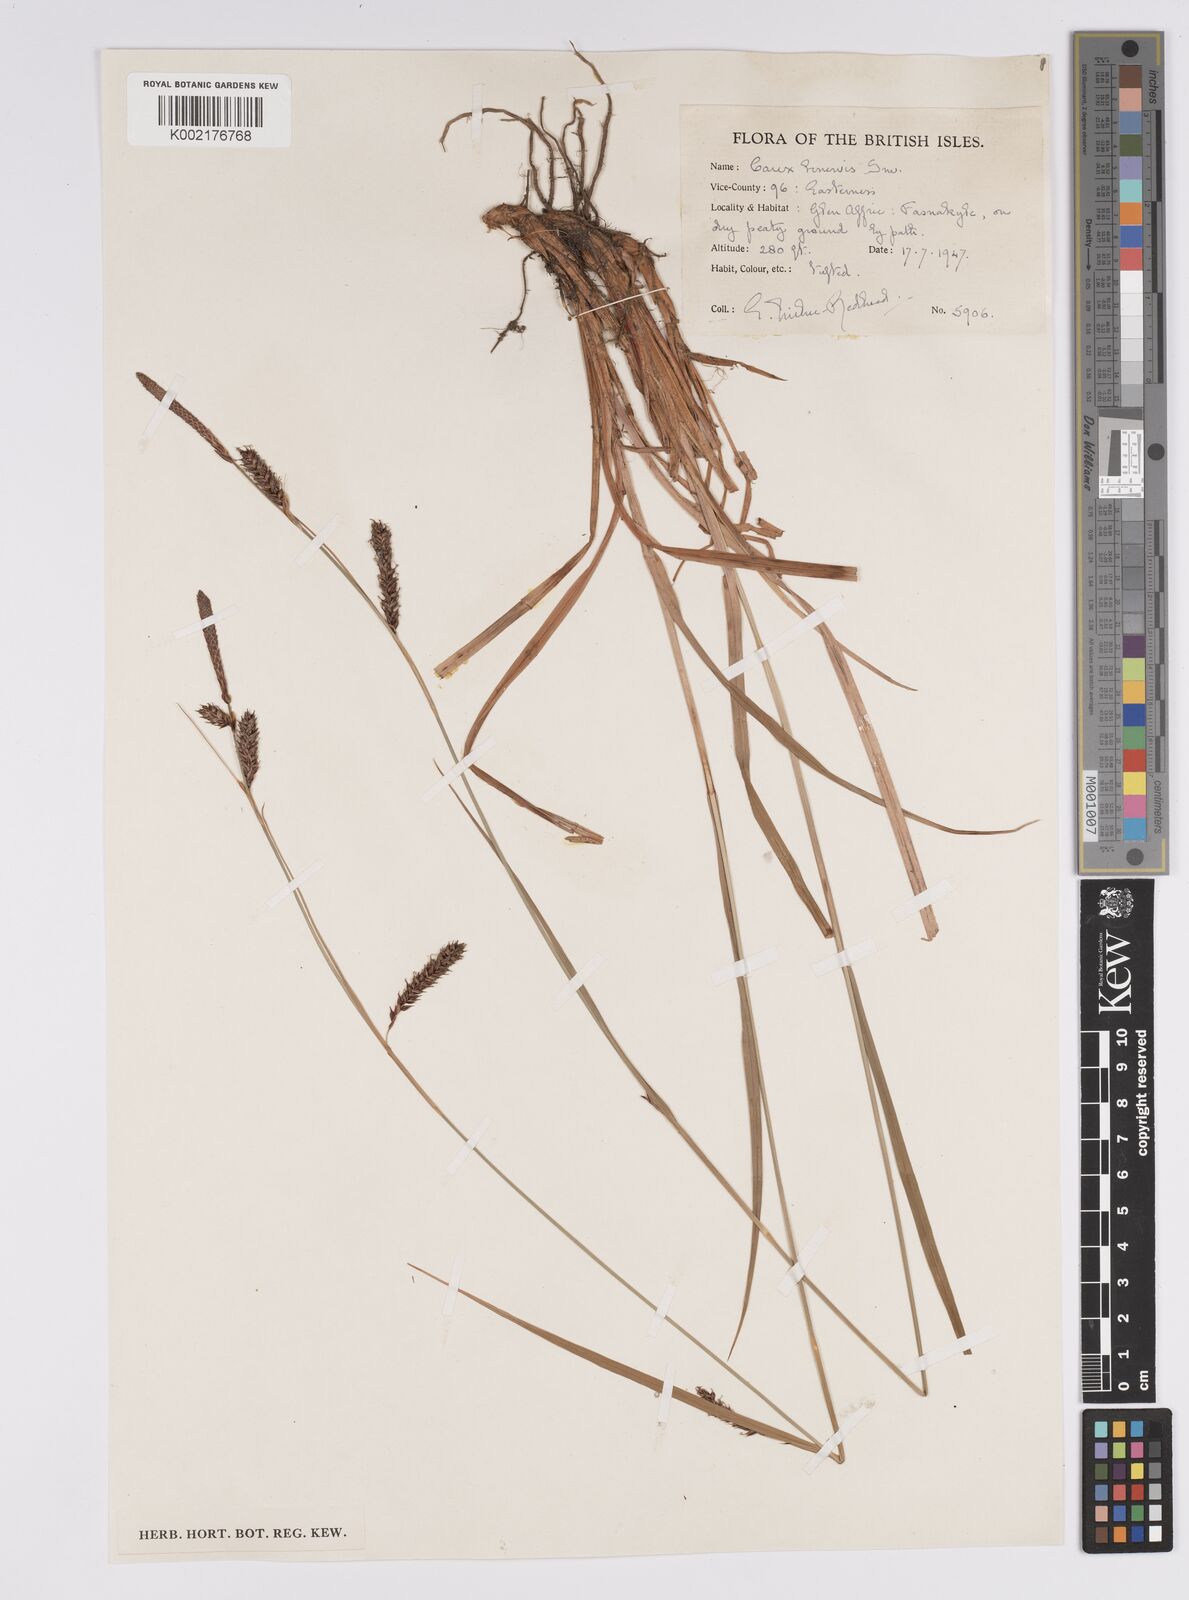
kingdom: Plantae
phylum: Tracheophyta
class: Liliopsida
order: Poales
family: Cyperaceae
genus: Carex
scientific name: Carex binervis
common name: Green-ribbed sedge
